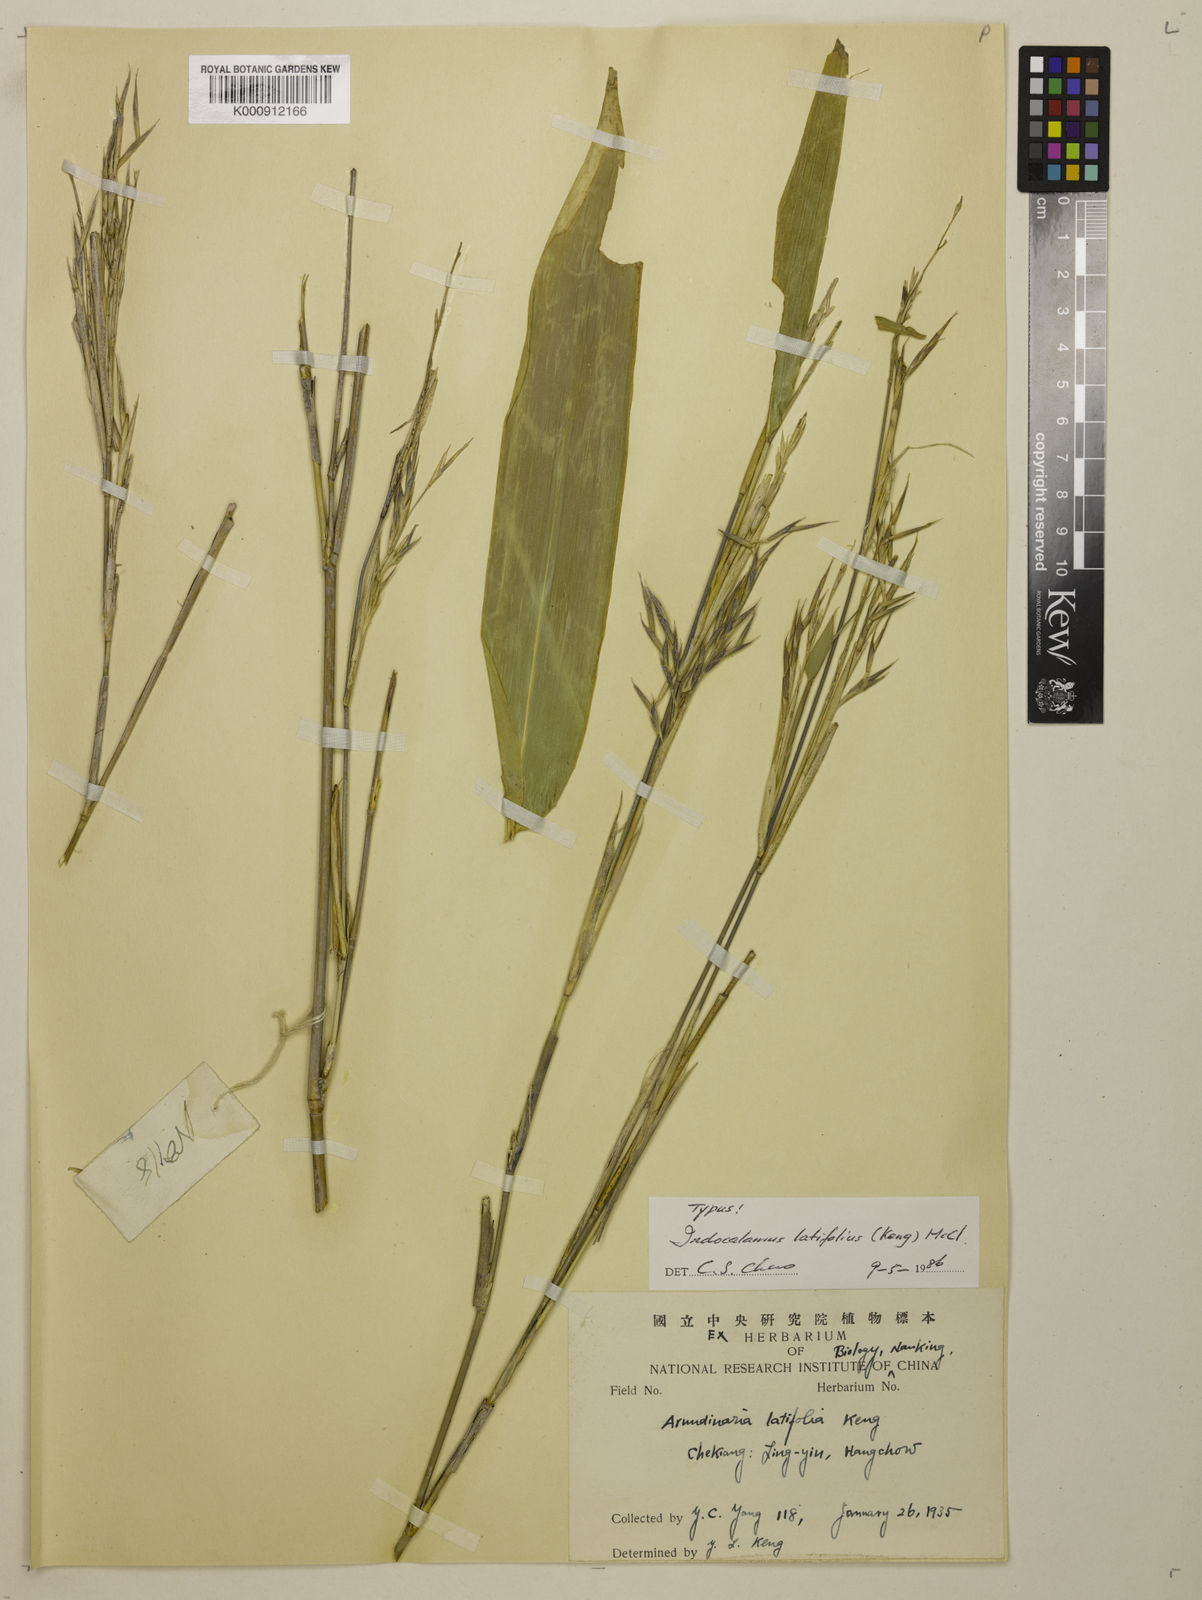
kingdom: Plantae
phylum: Tracheophyta
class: Liliopsida
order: Poales
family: Poaceae
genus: Indocalamus
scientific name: Indocalamus latifolius
